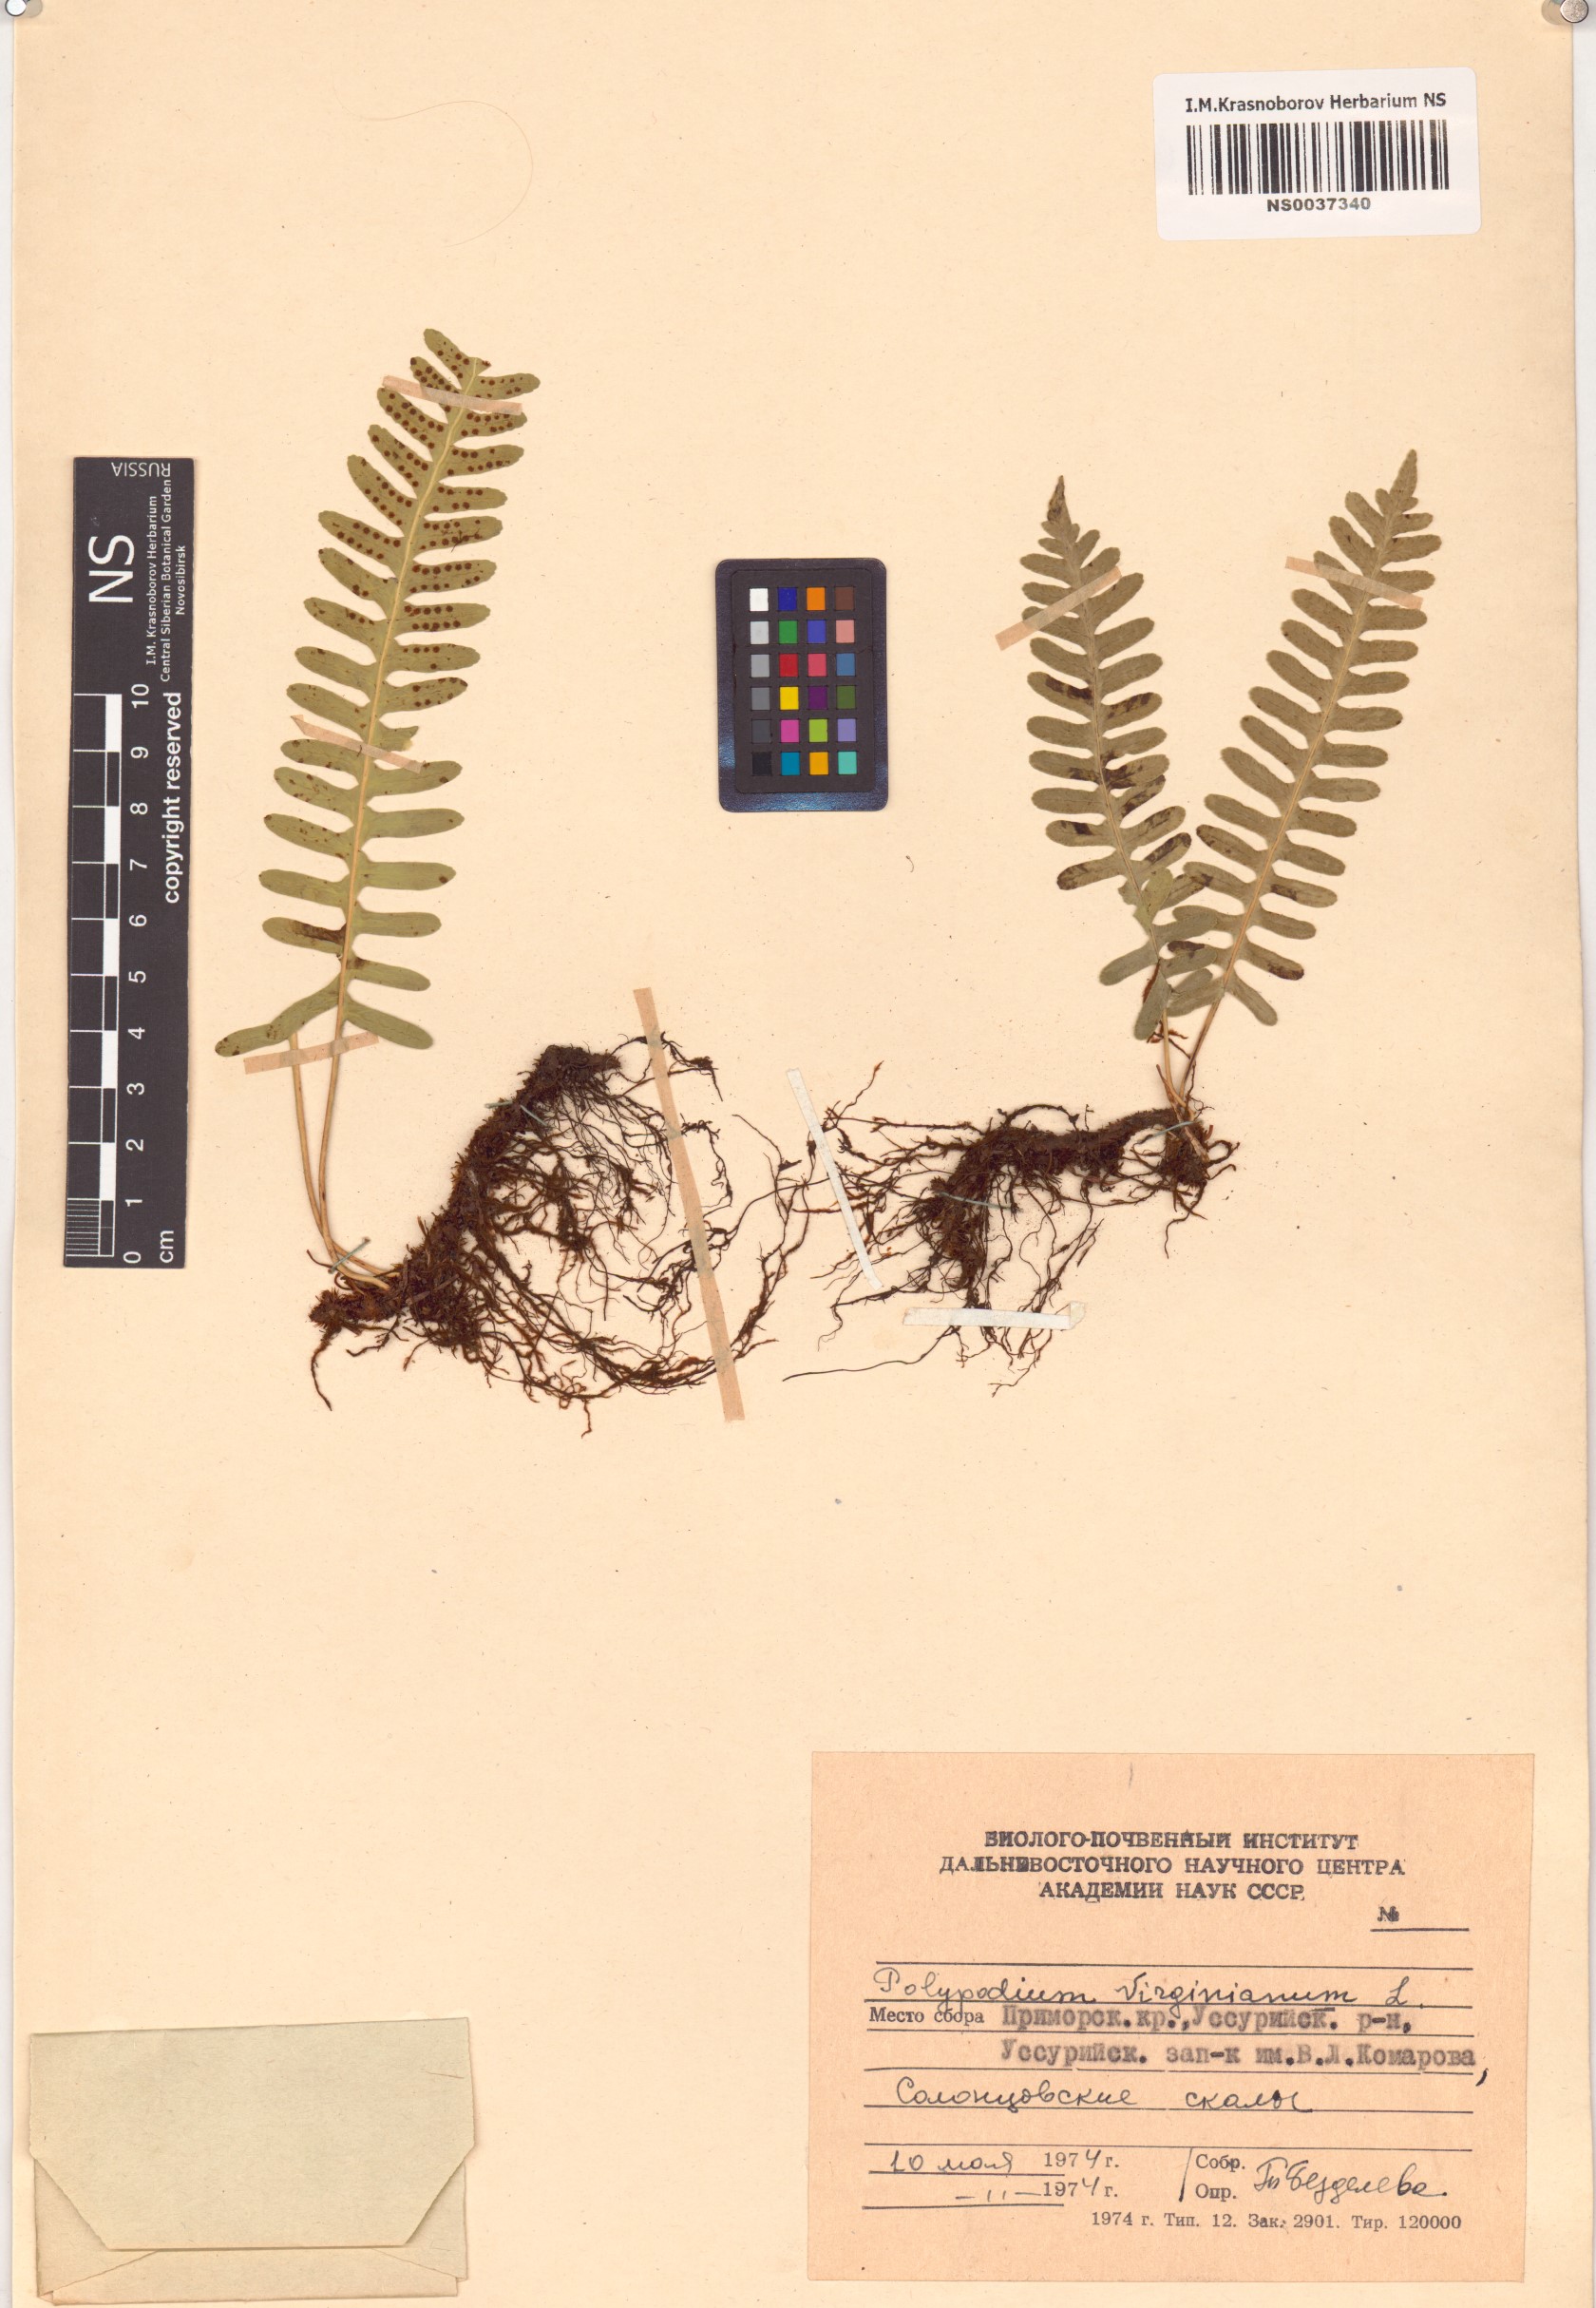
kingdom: Plantae
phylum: Tracheophyta
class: Polypodiopsida
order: Polypodiales
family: Polypodiaceae
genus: Polypodium
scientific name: Polypodium virginianum
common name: American wall fern
